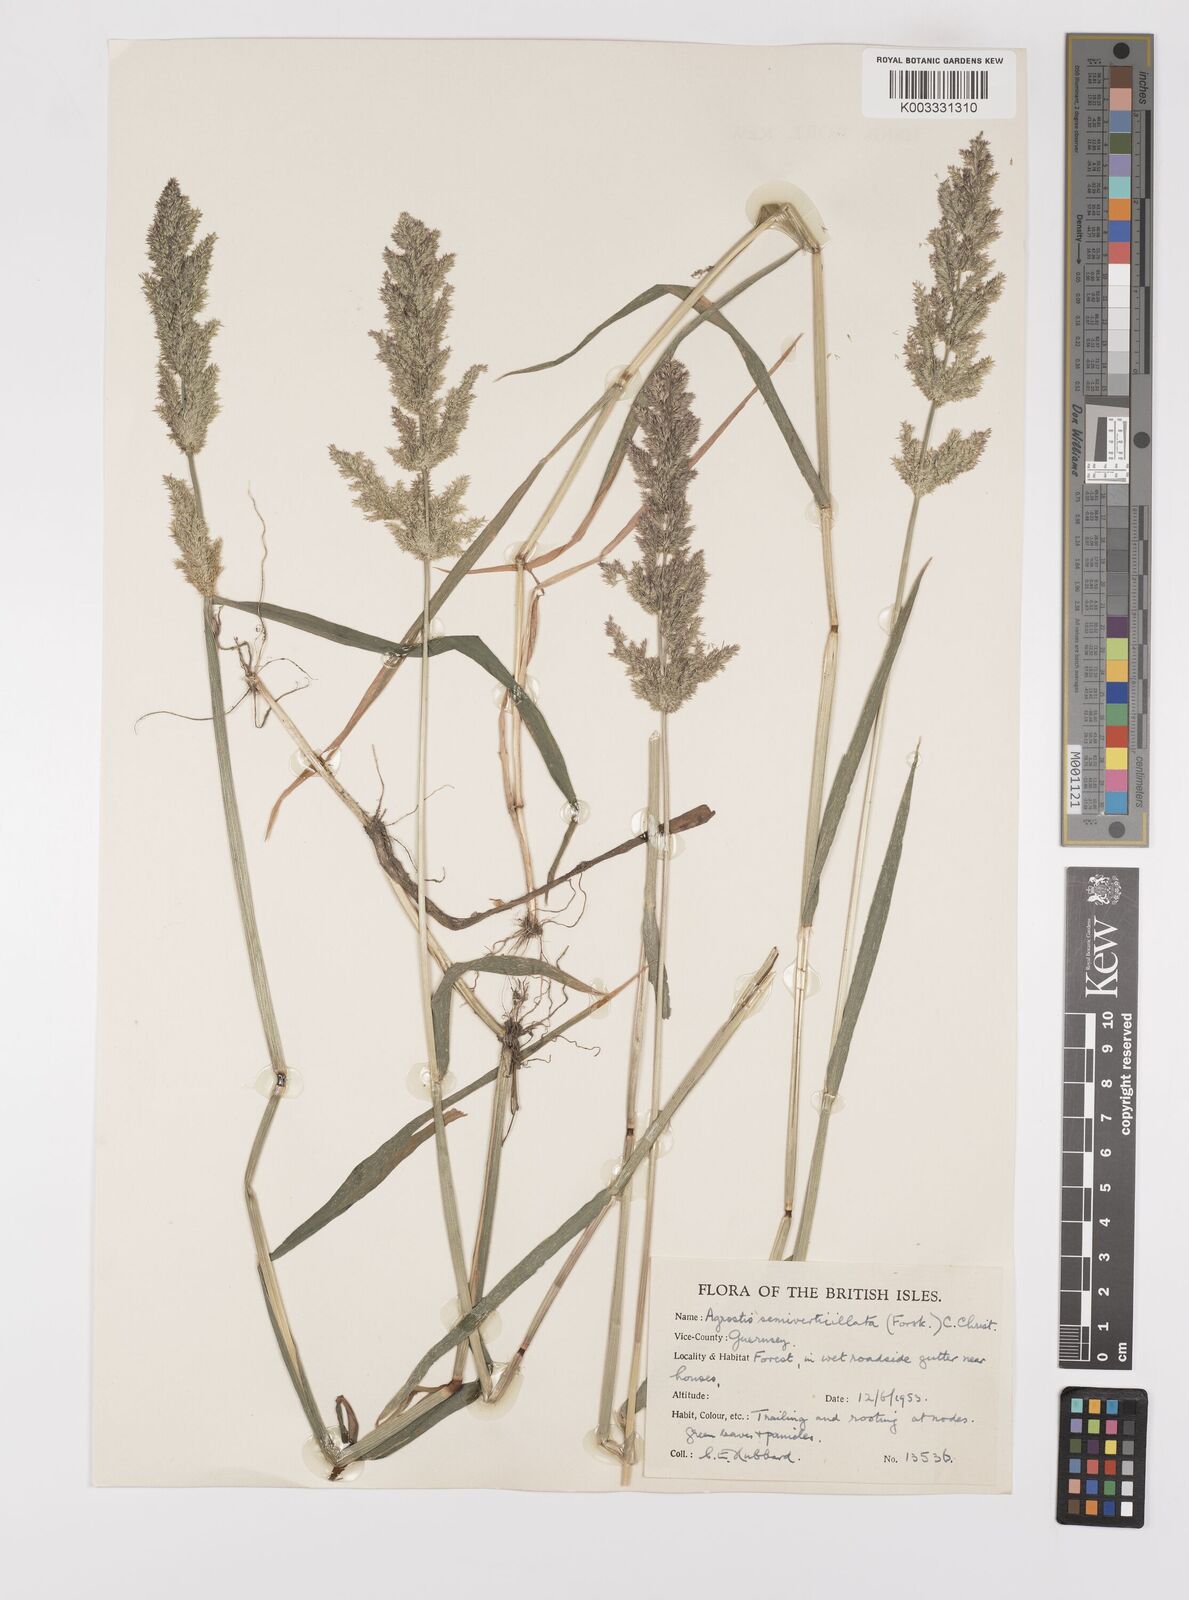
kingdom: Plantae
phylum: Tracheophyta
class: Liliopsida
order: Poales
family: Poaceae
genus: Polypogon
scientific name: Polypogon viridis
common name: Water bent
